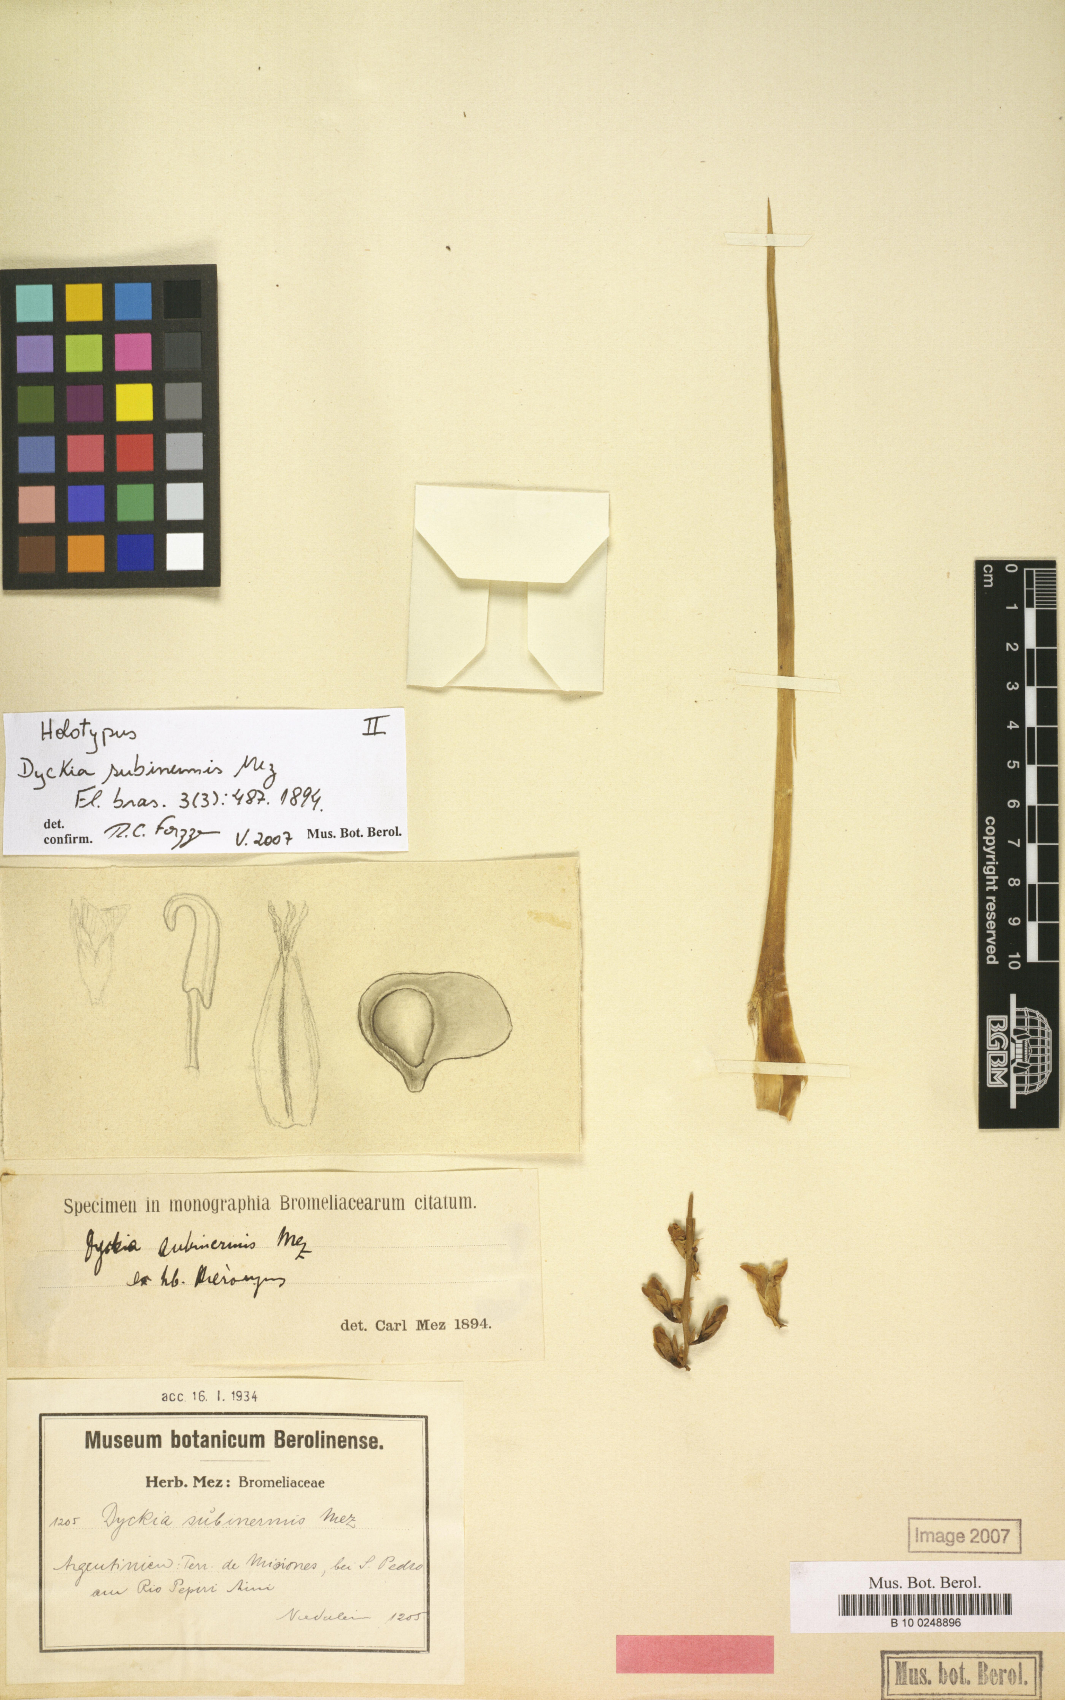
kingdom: Plantae
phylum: Tracheophyta
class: Liliopsida
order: Poales
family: Bromeliaceae
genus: Dyckia
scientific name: Dyckia subinermis
